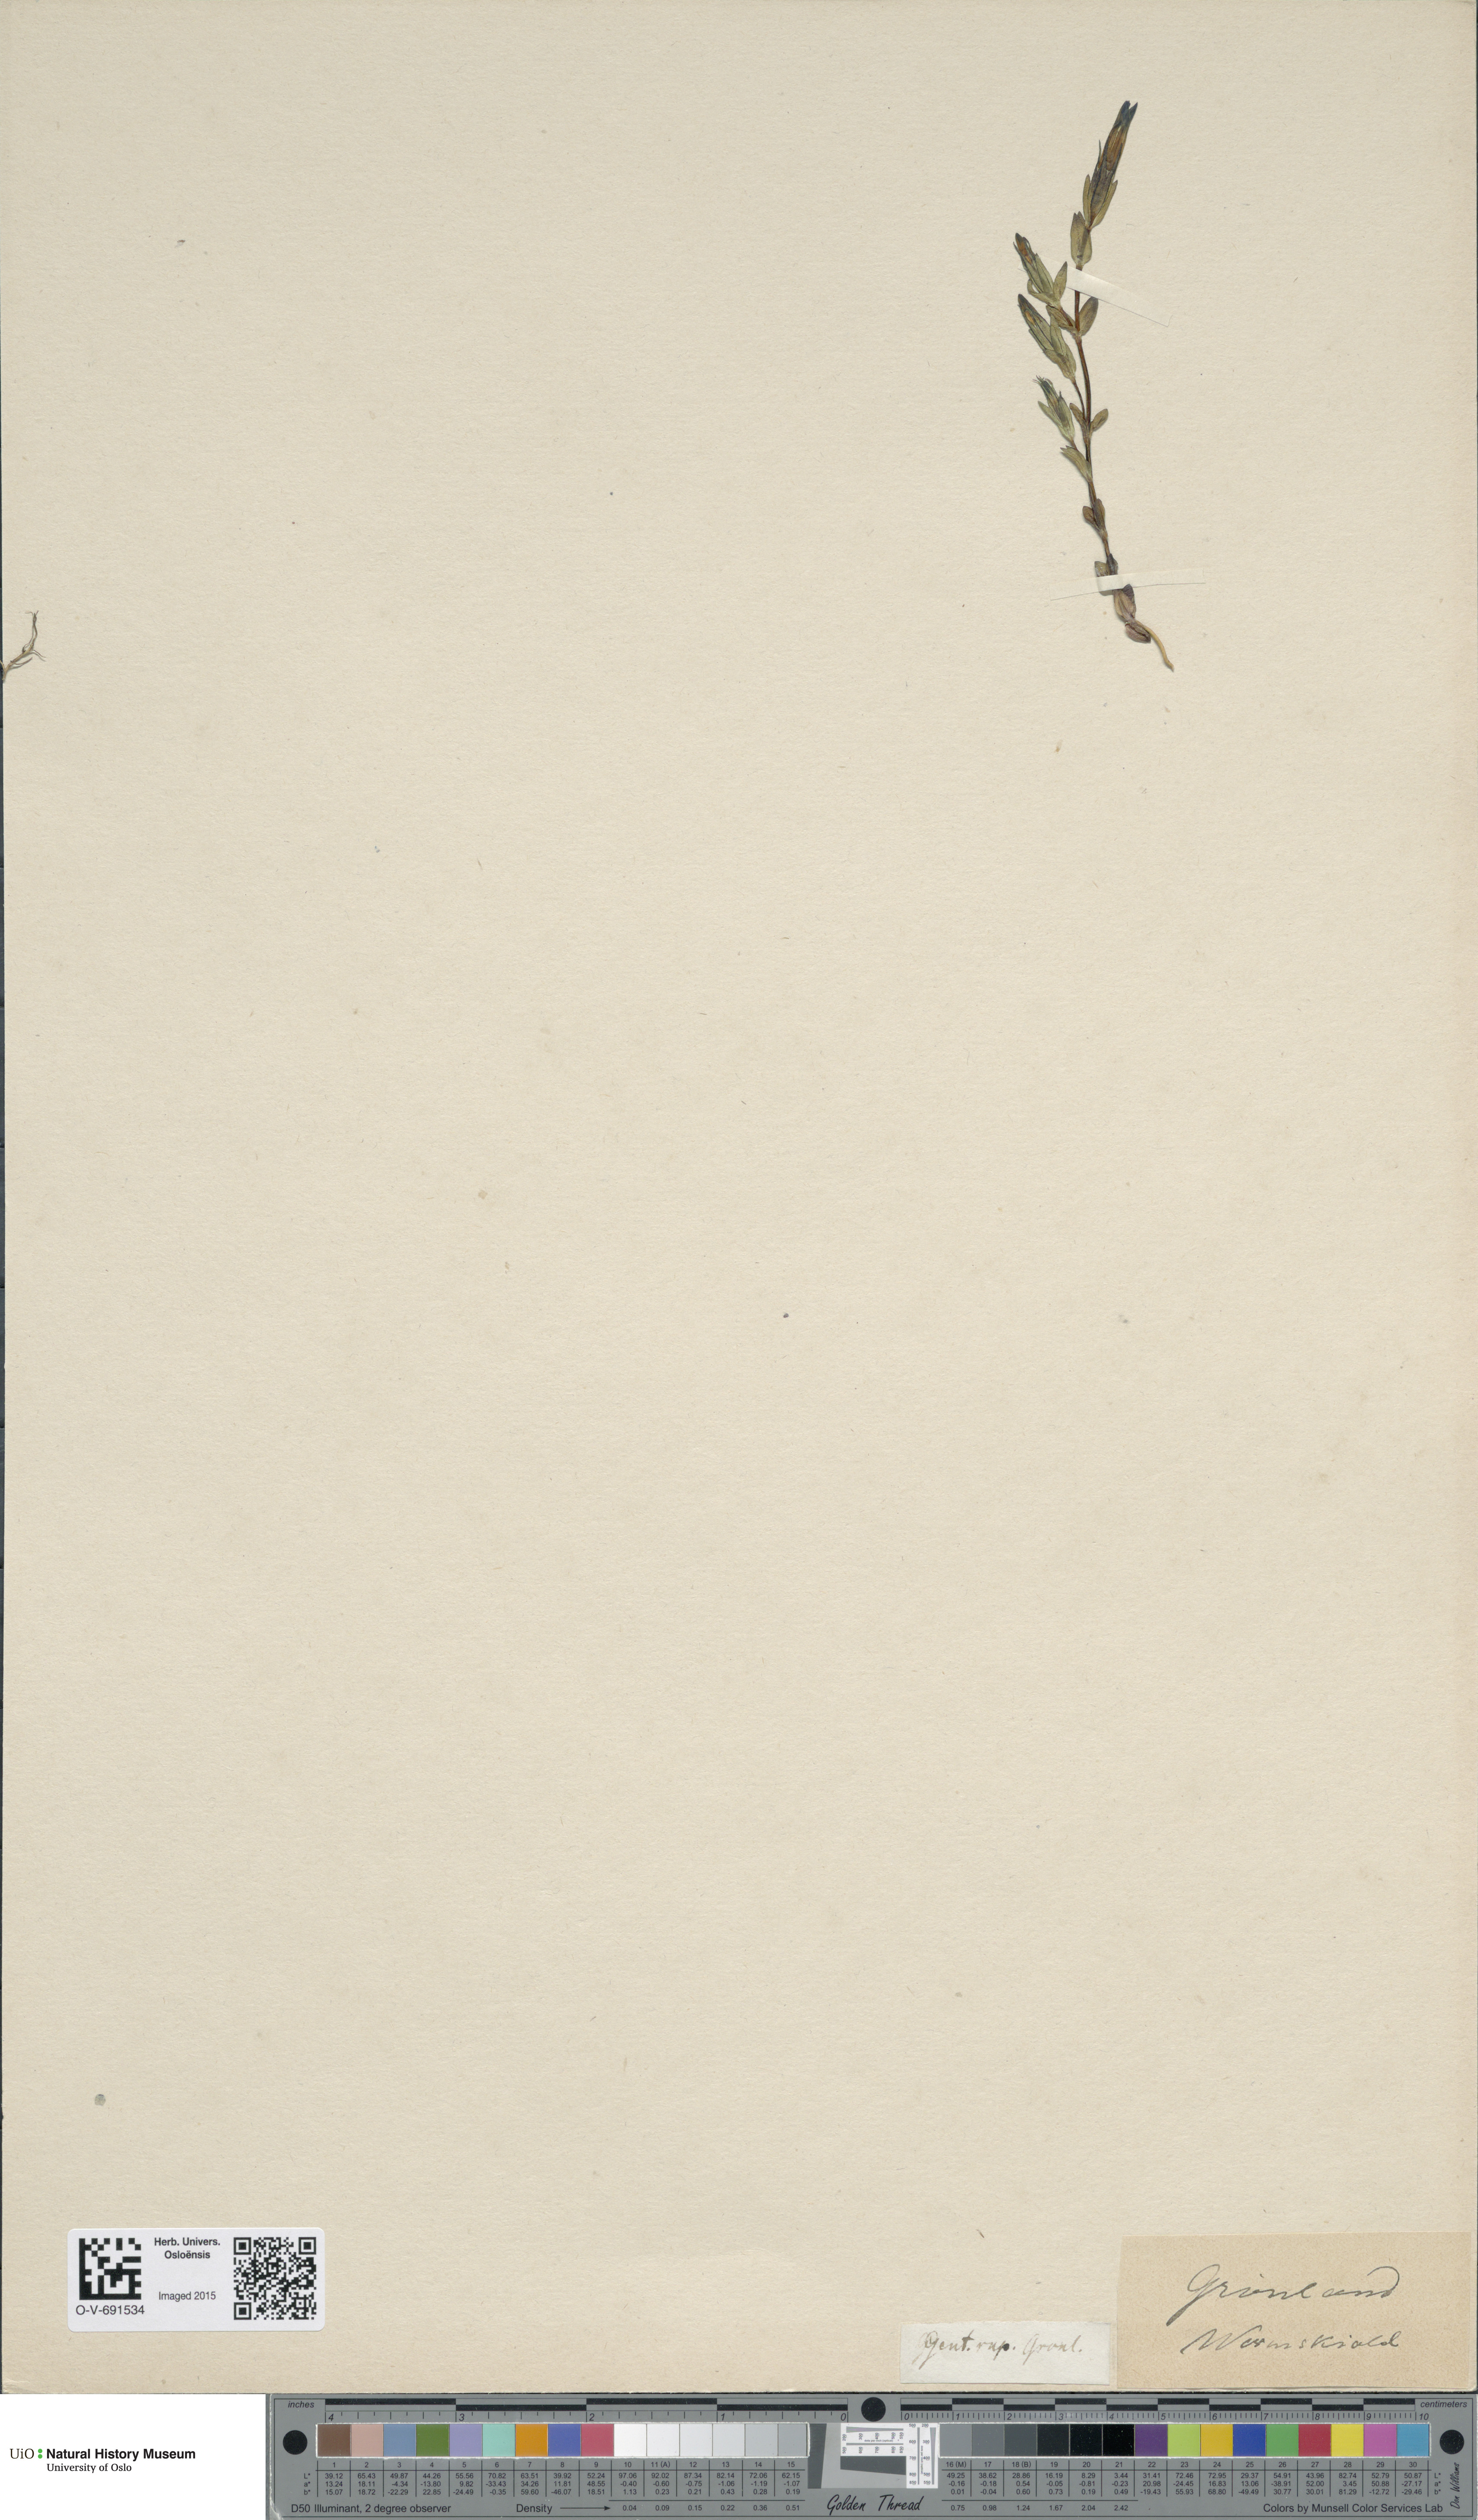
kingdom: Plantae
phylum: Tracheophyta
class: Magnoliopsida
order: Gentianales
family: Gentianaceae
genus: Gentiana
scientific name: Gentiana nivalis
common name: Alpine gentian
